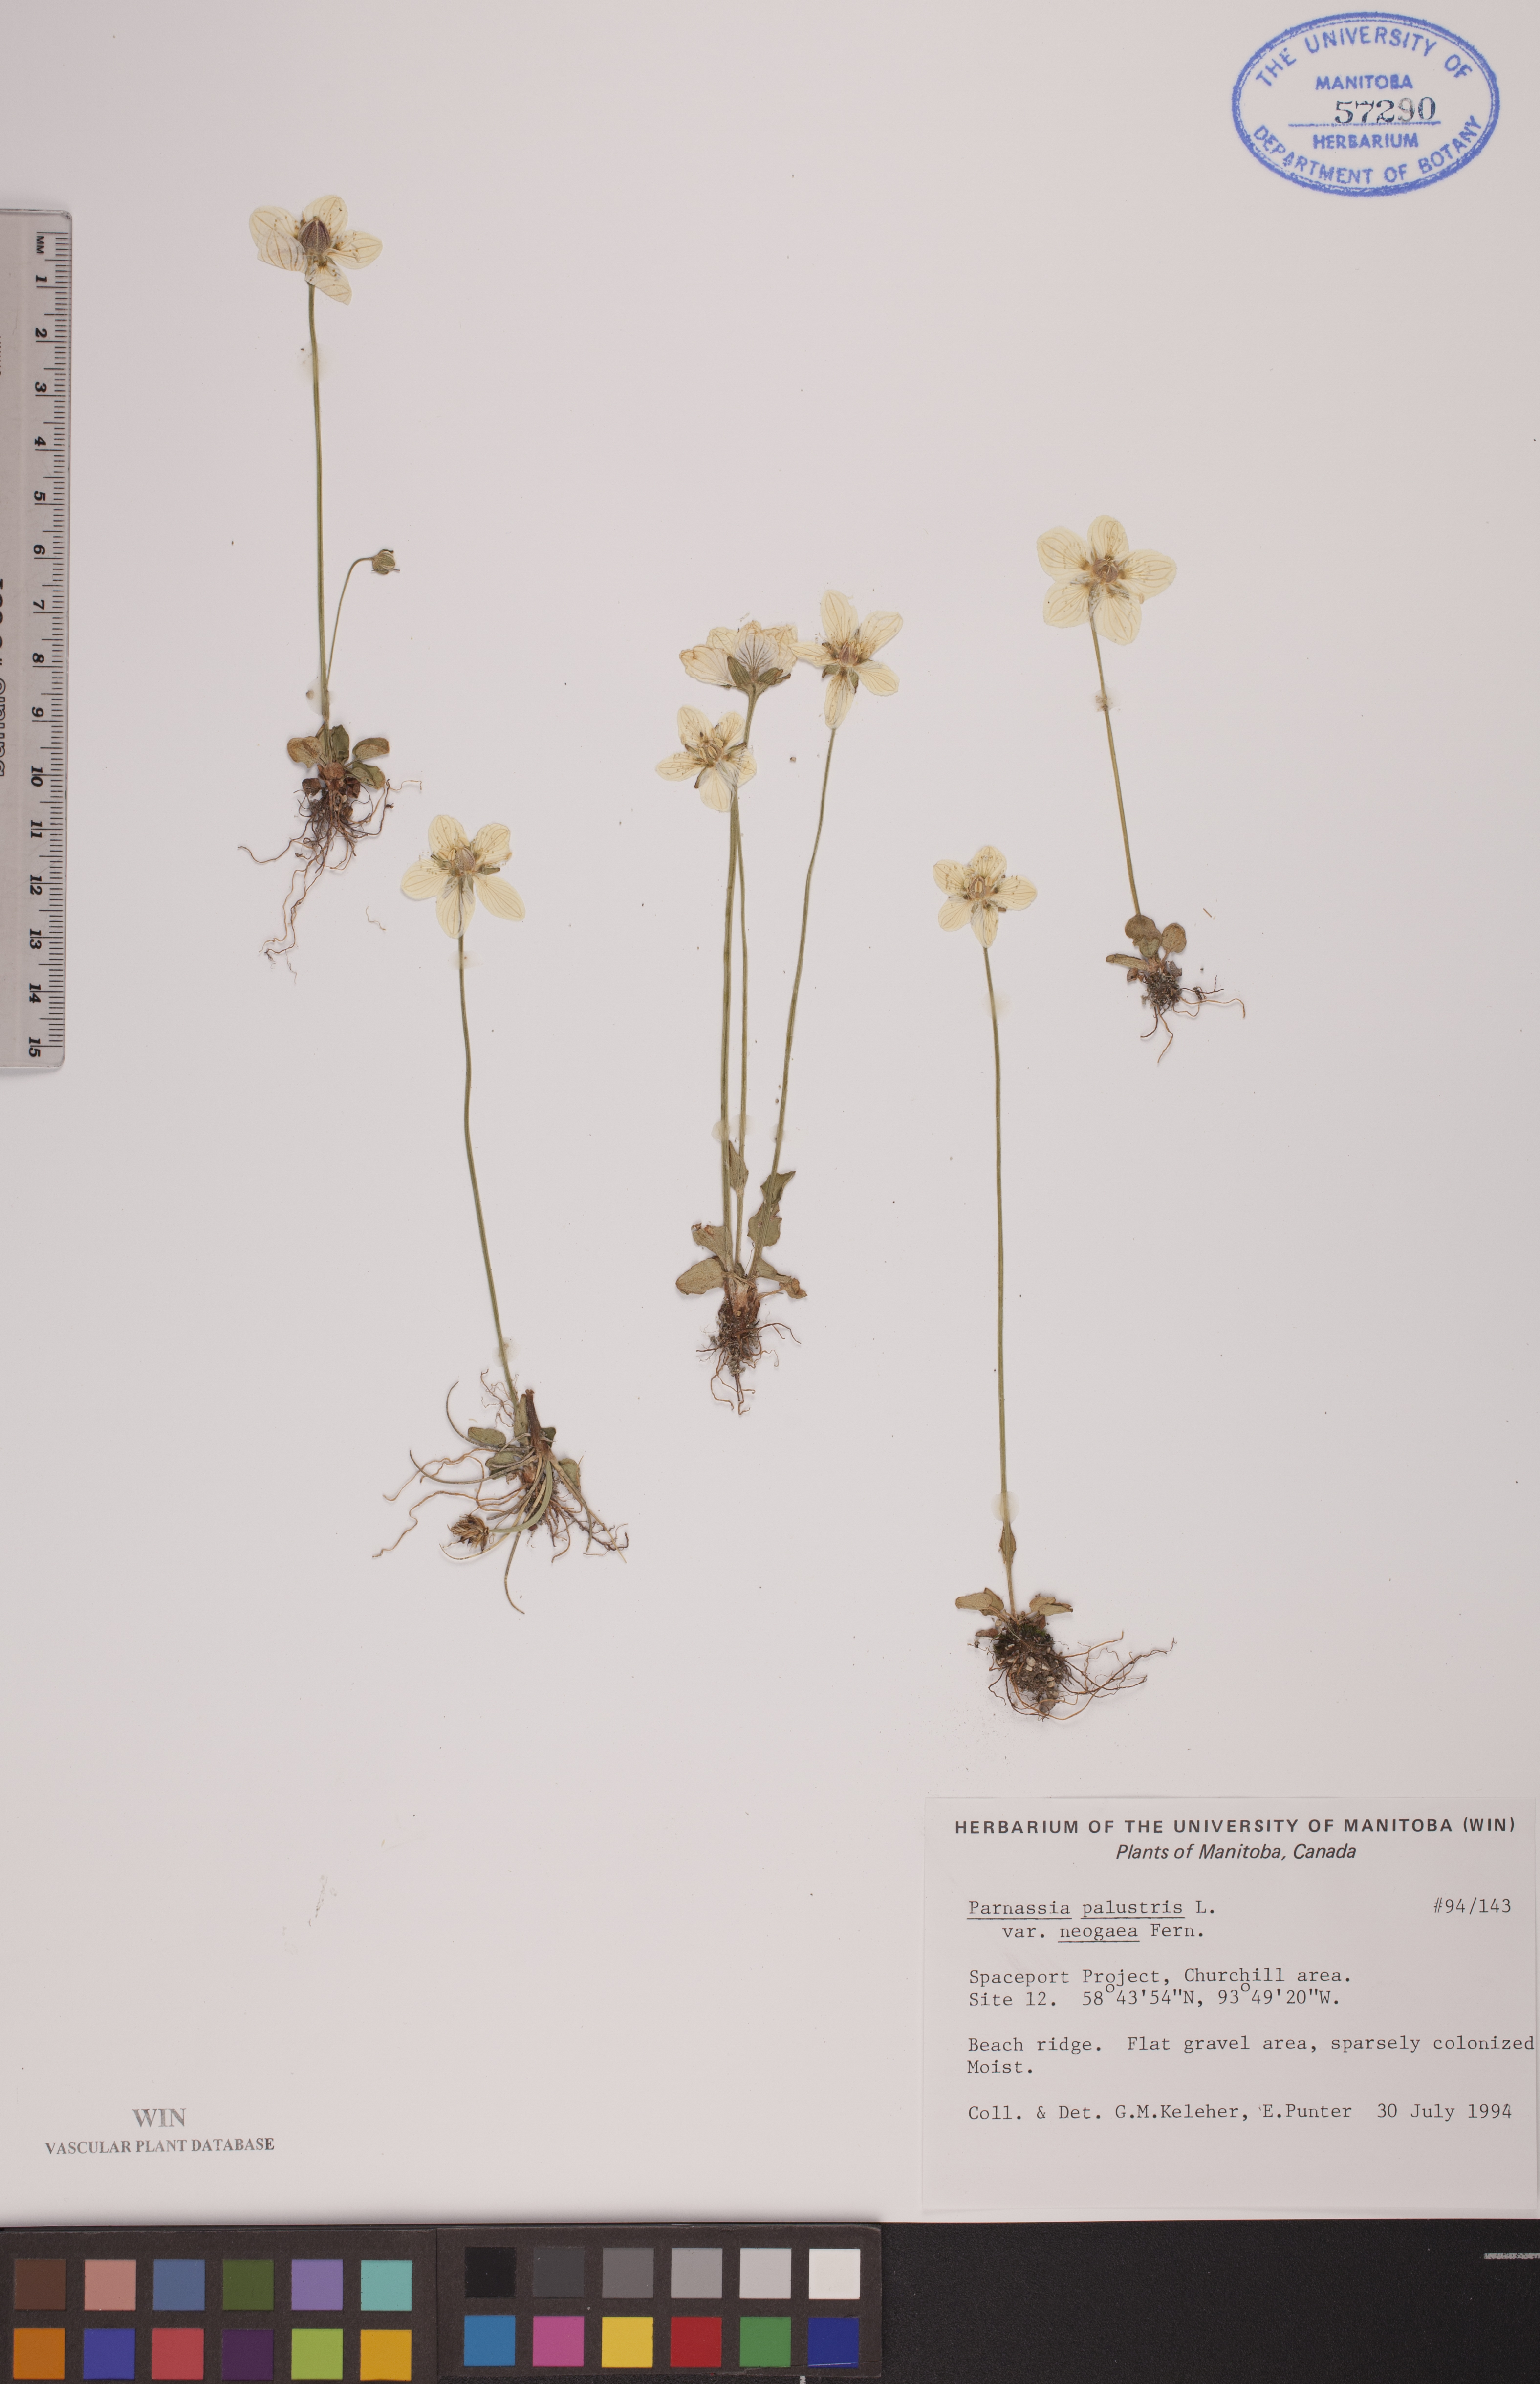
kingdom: Plantae
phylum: Tracheophyta
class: Magnoliopsida
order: Celastrales
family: Parnassiaceae
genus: Parnassia
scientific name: Parnassia palustris
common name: Grass-of-parnassus
